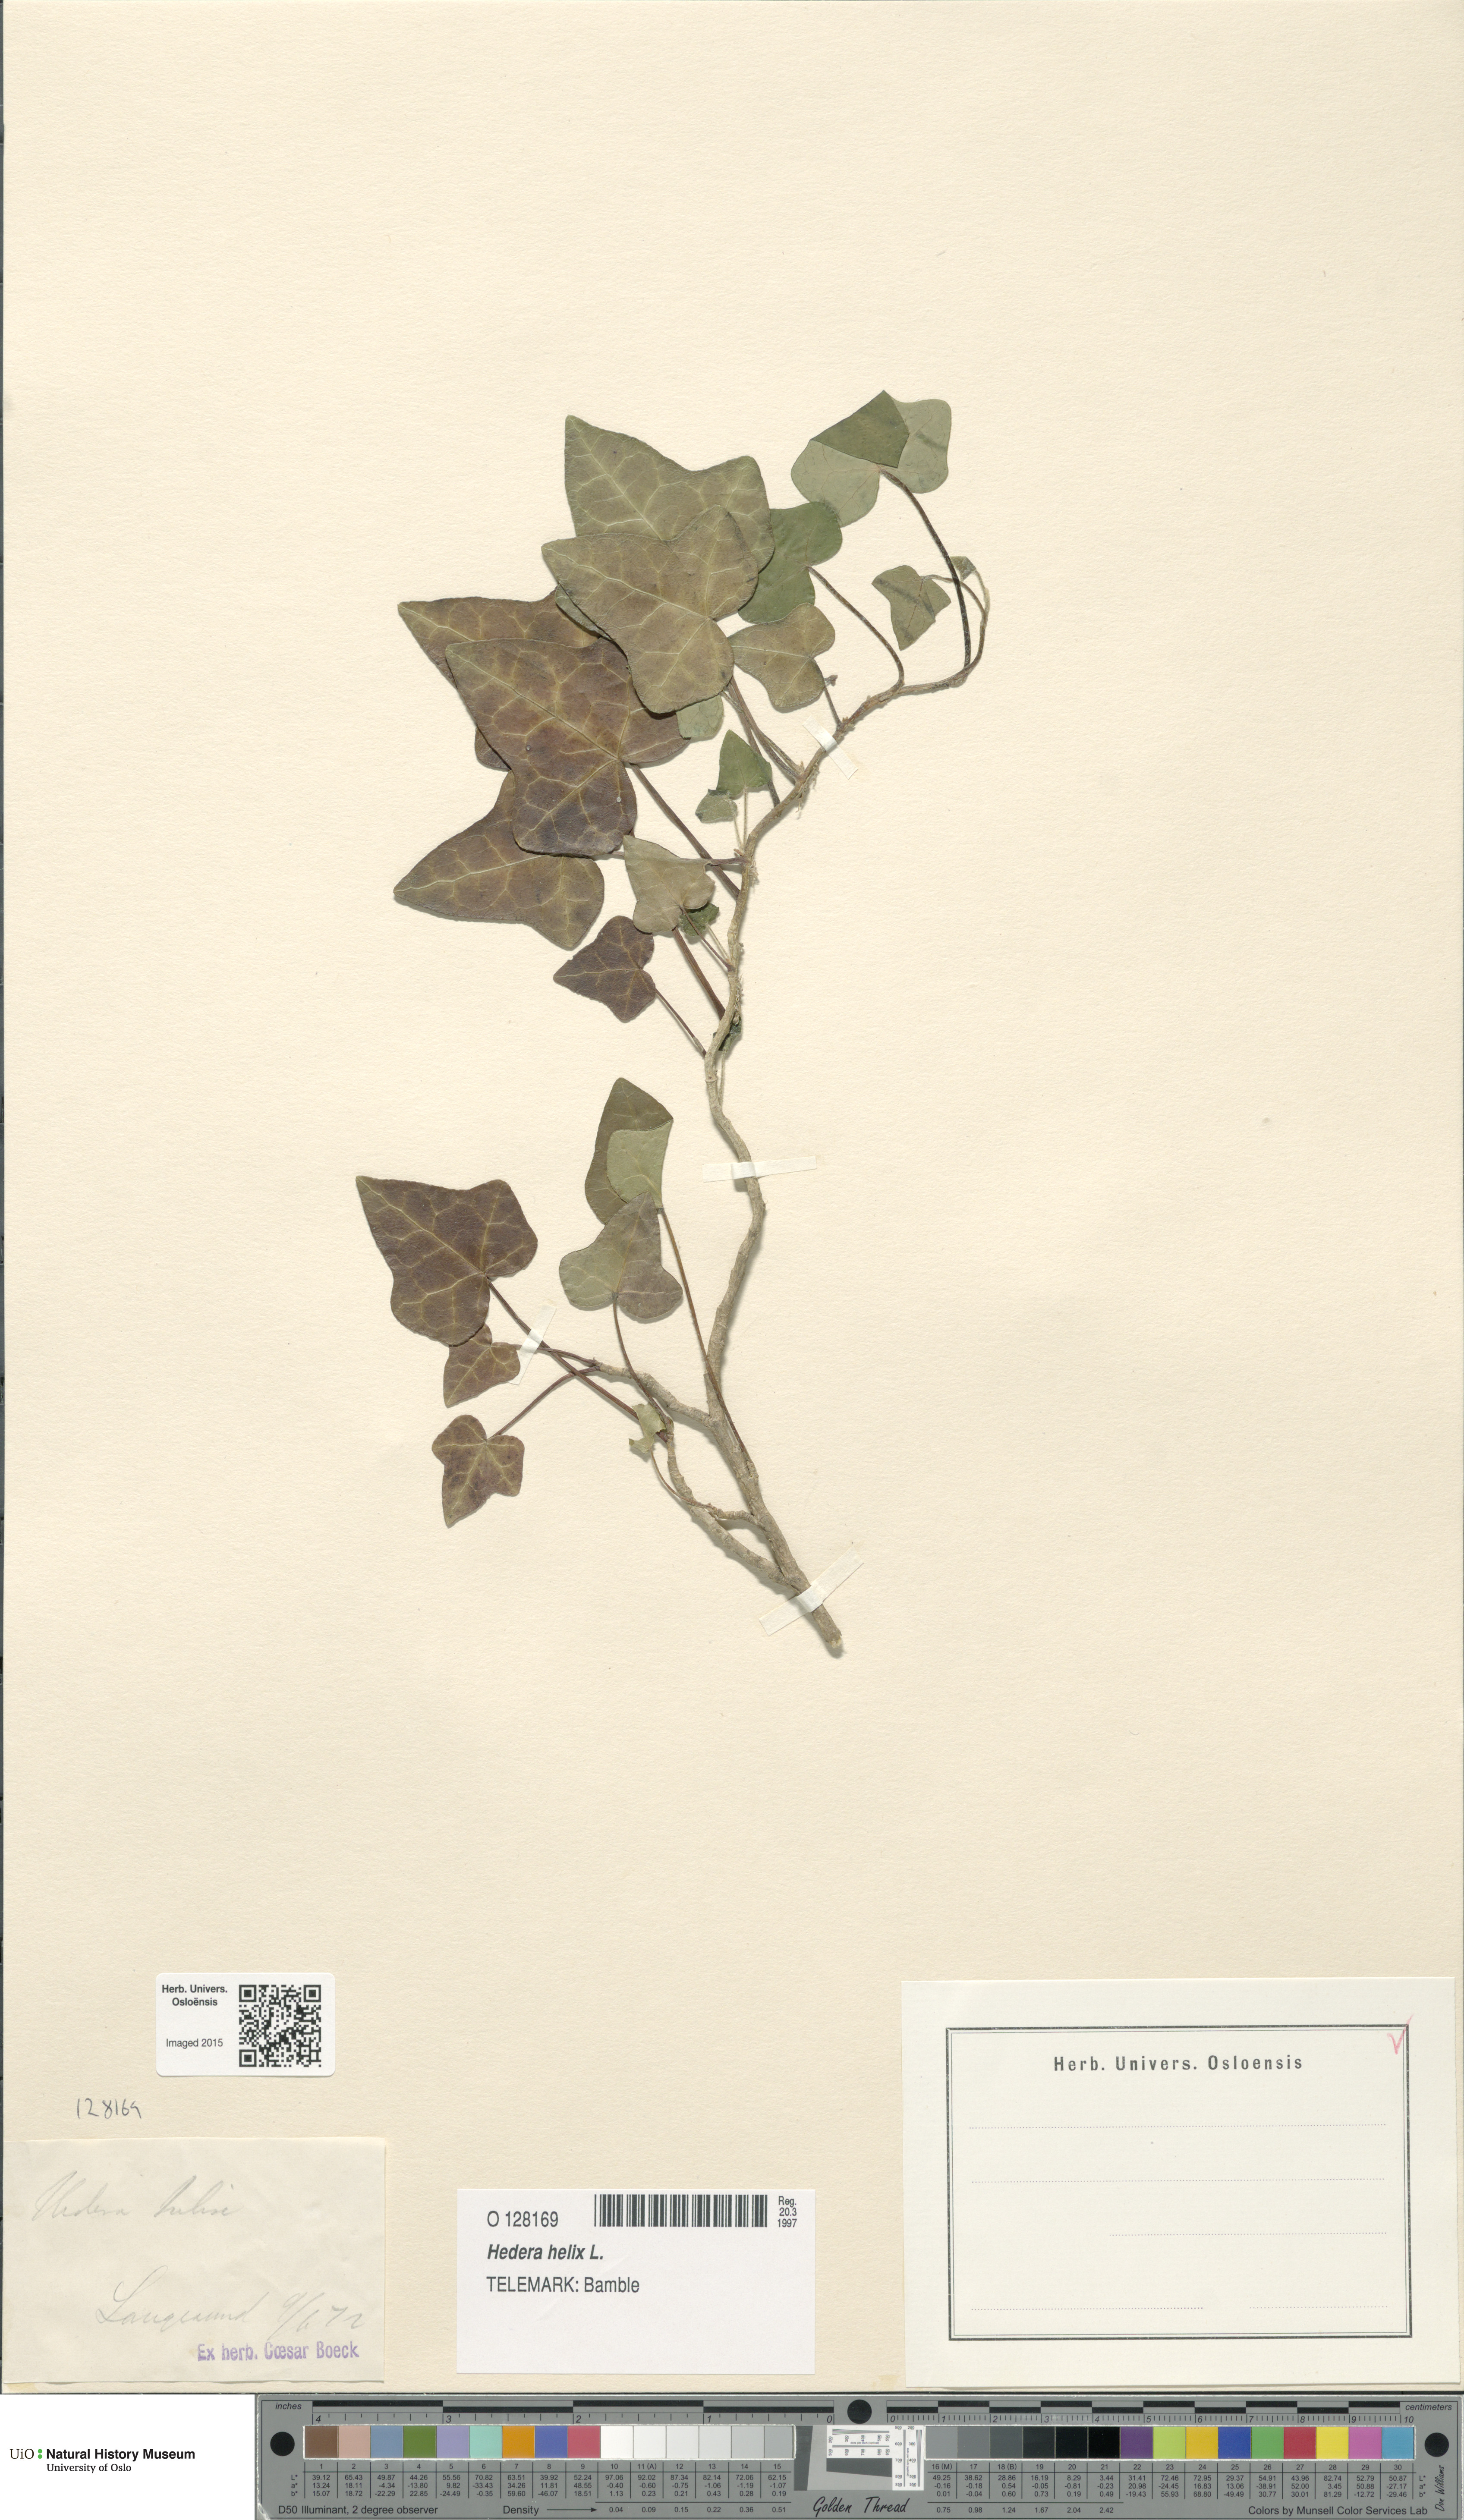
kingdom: Plantae
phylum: Tracheophyta
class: Magnoliopsida
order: Apiales
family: Araliaceae
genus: Hedera
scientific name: Hedera helix
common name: Ivy
